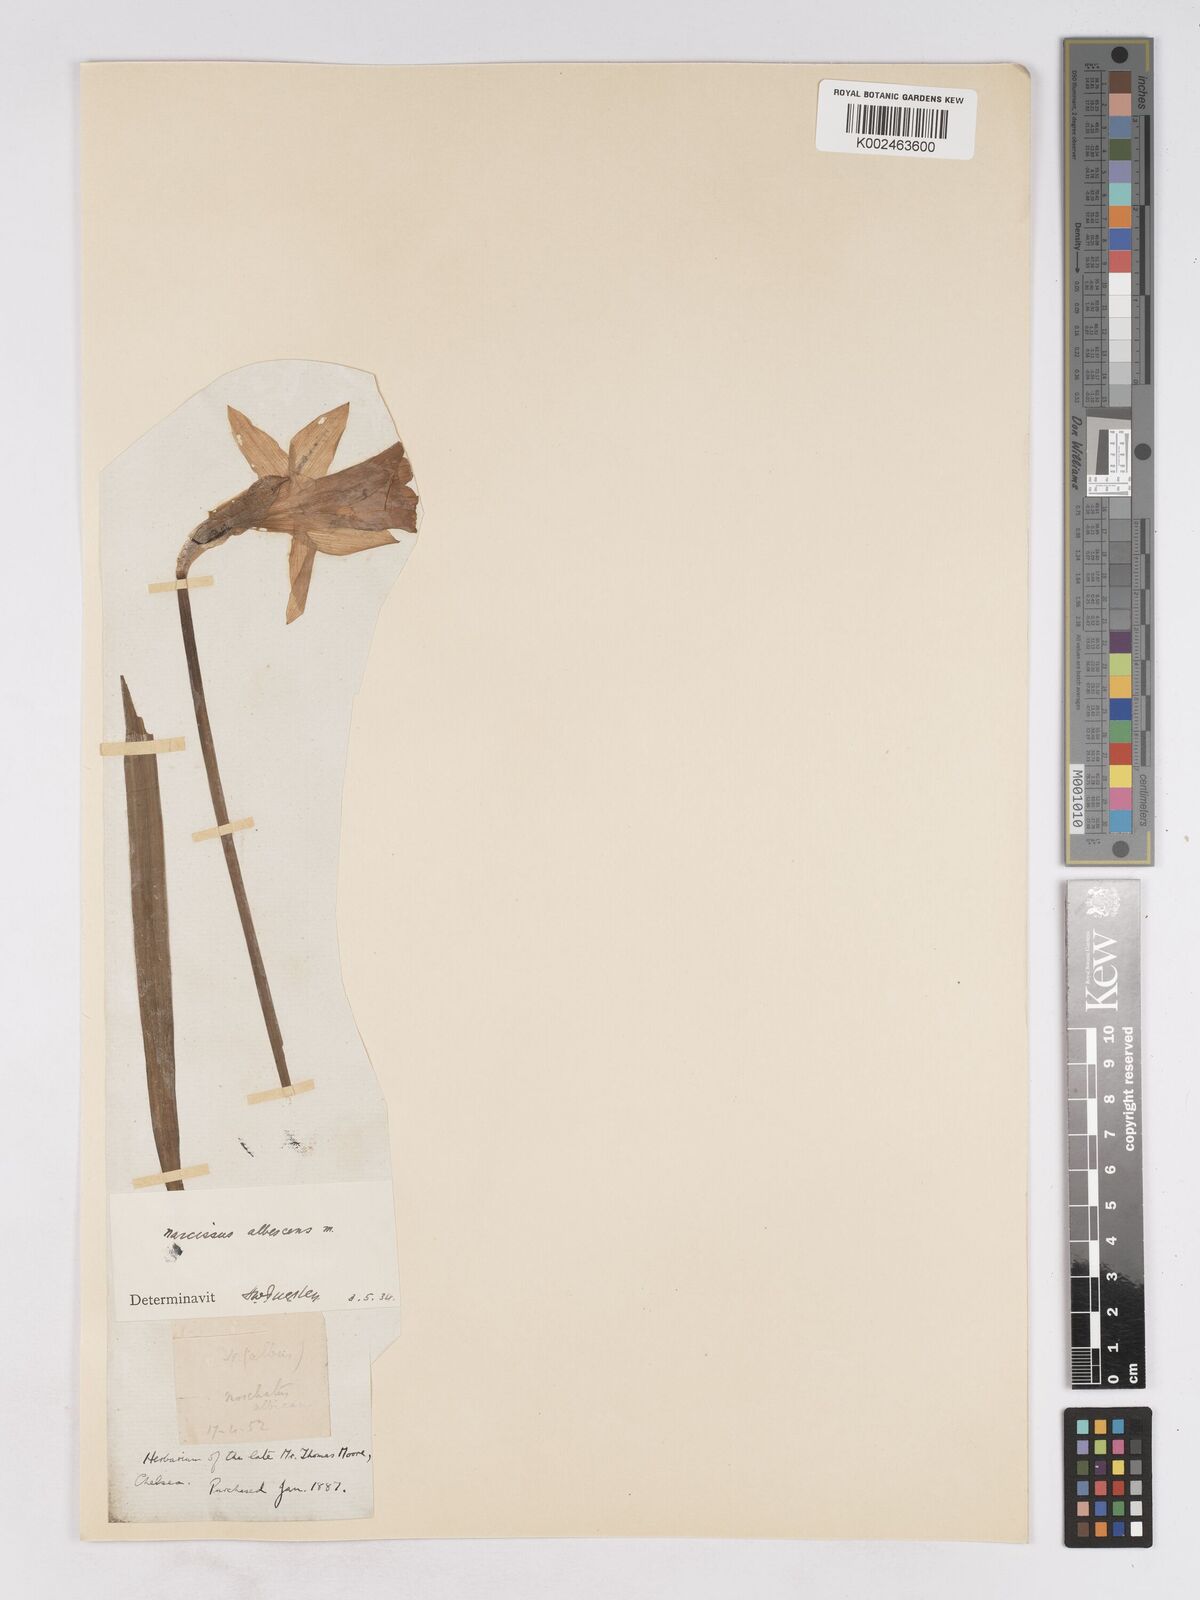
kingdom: Plantae
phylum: Tracheophyta
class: Liliopsida
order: Asparagales
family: Amaryllidaceae
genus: Narcissus
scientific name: Narcissus pallidiflorus
